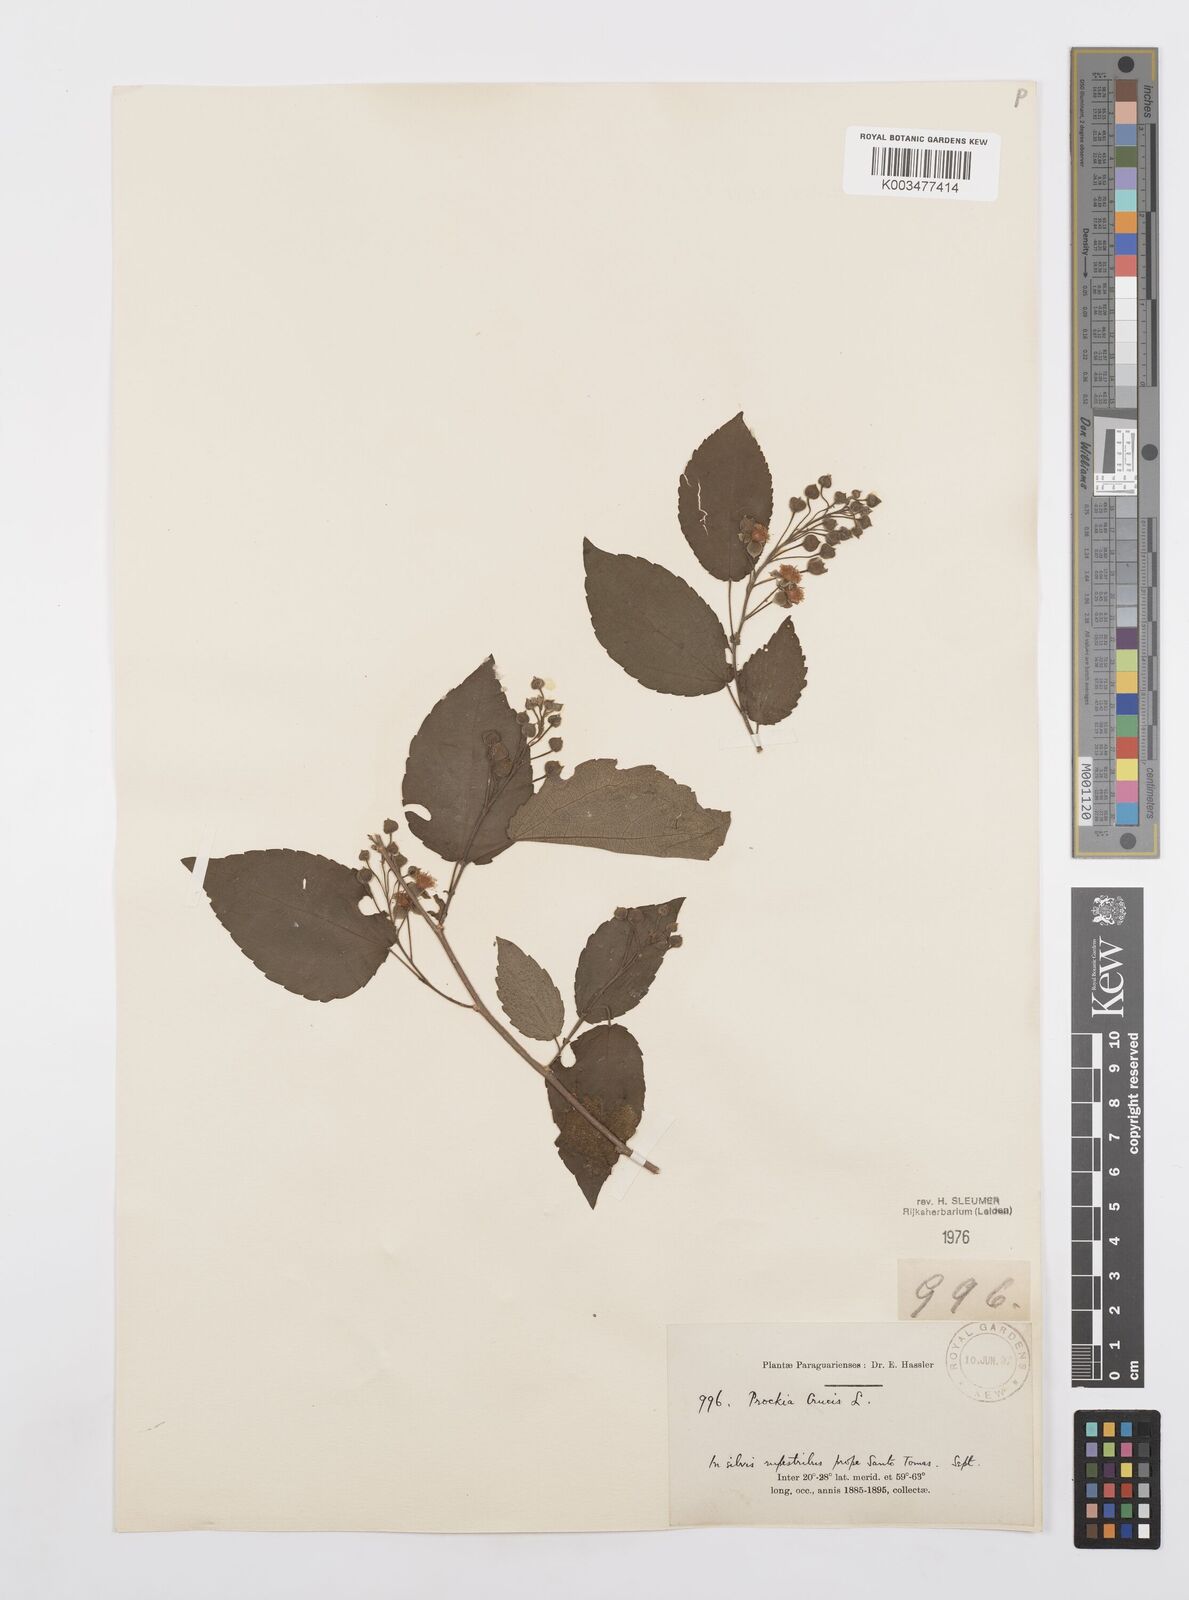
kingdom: Plantae
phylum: Tracheophyta
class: Magnoliopsida
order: Malpighiales
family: Salicaceae
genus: Prockia
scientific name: Prockia crucis
